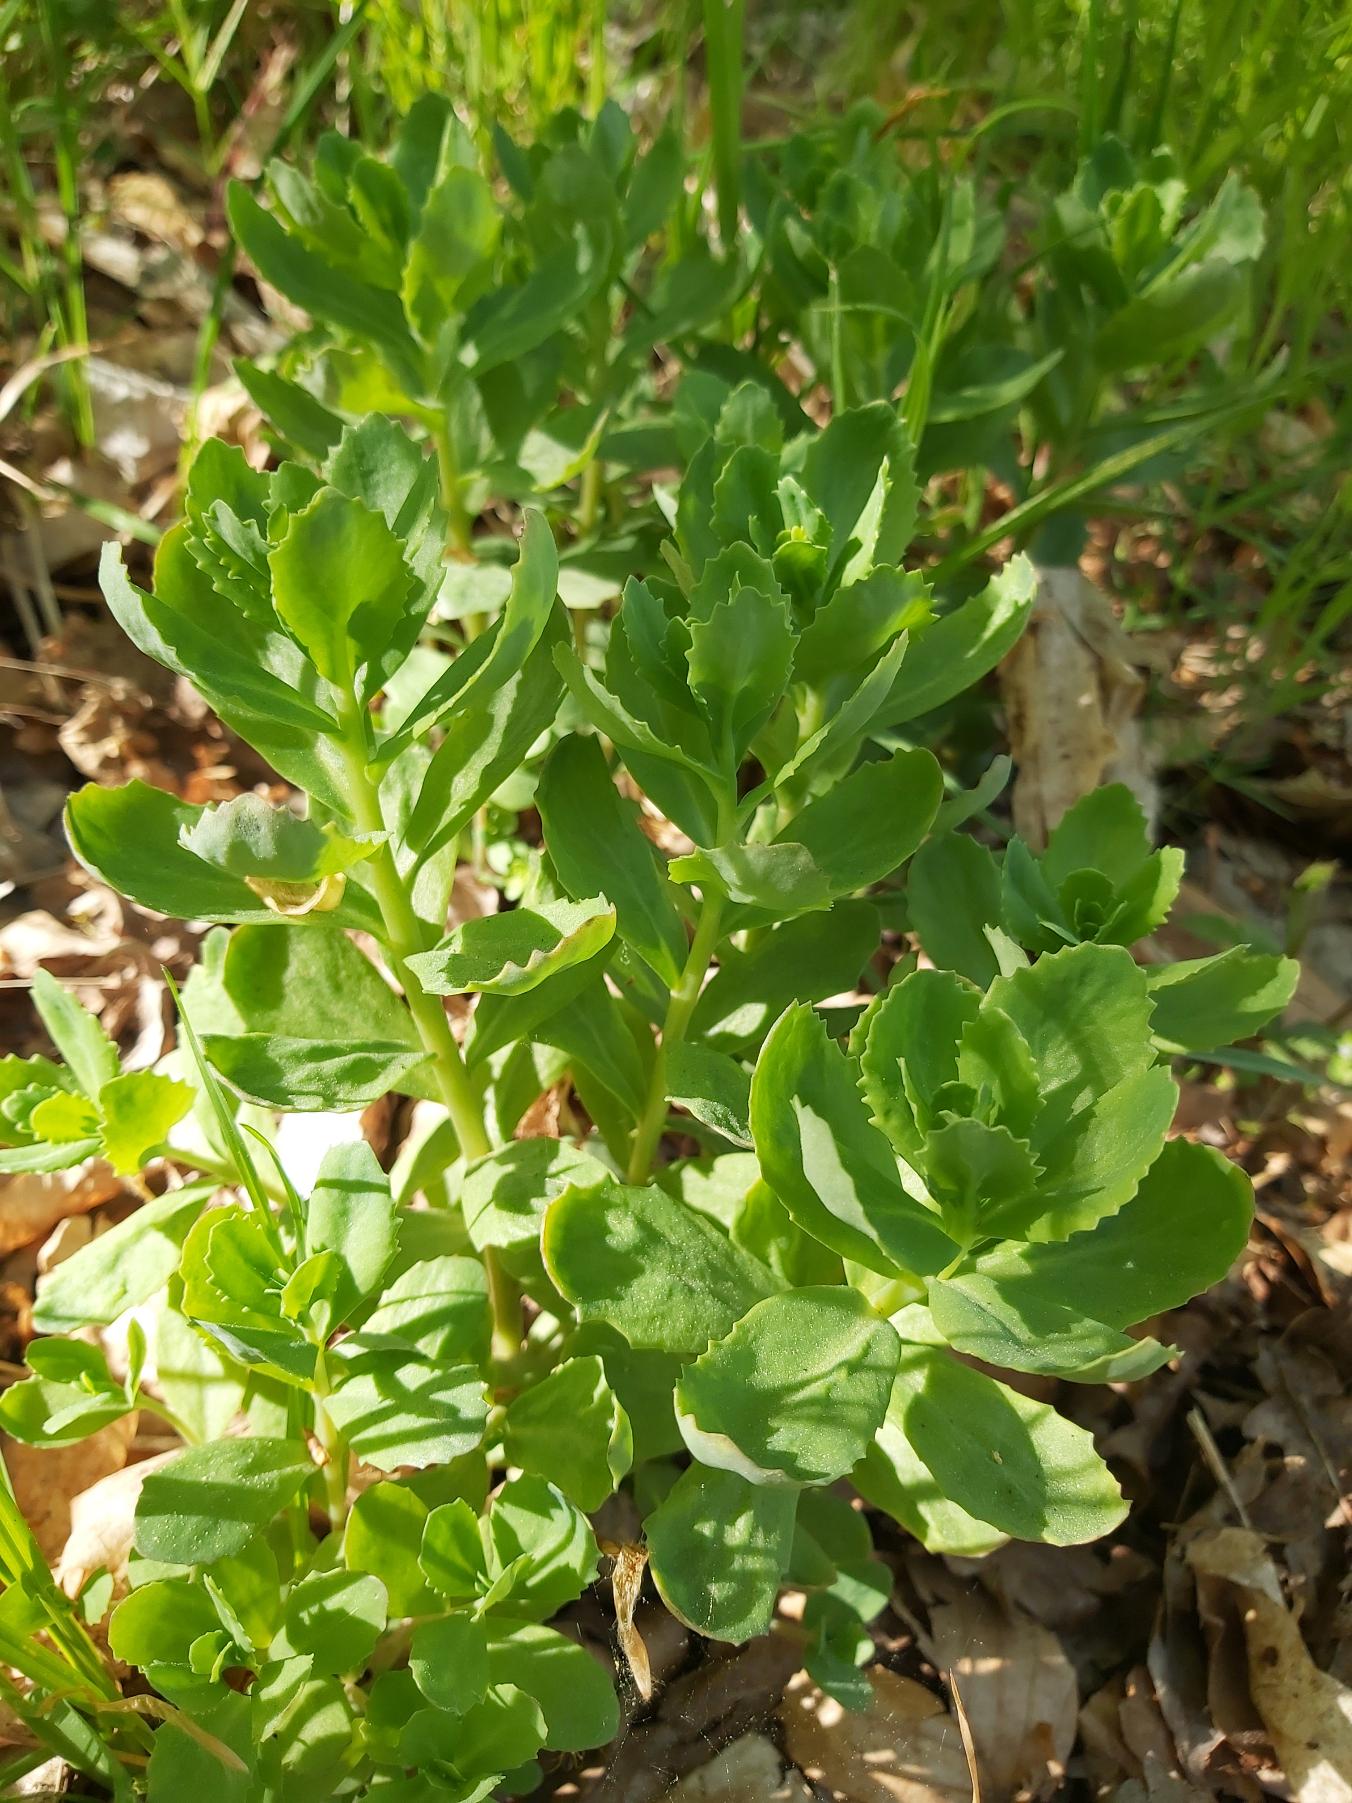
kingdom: Plantae
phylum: Tracheophyta
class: Magnoliopsida
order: Saxifragales
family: Crassulaceae
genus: Hylotelephium
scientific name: Hylotelephium telephium
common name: Sankthansurt
